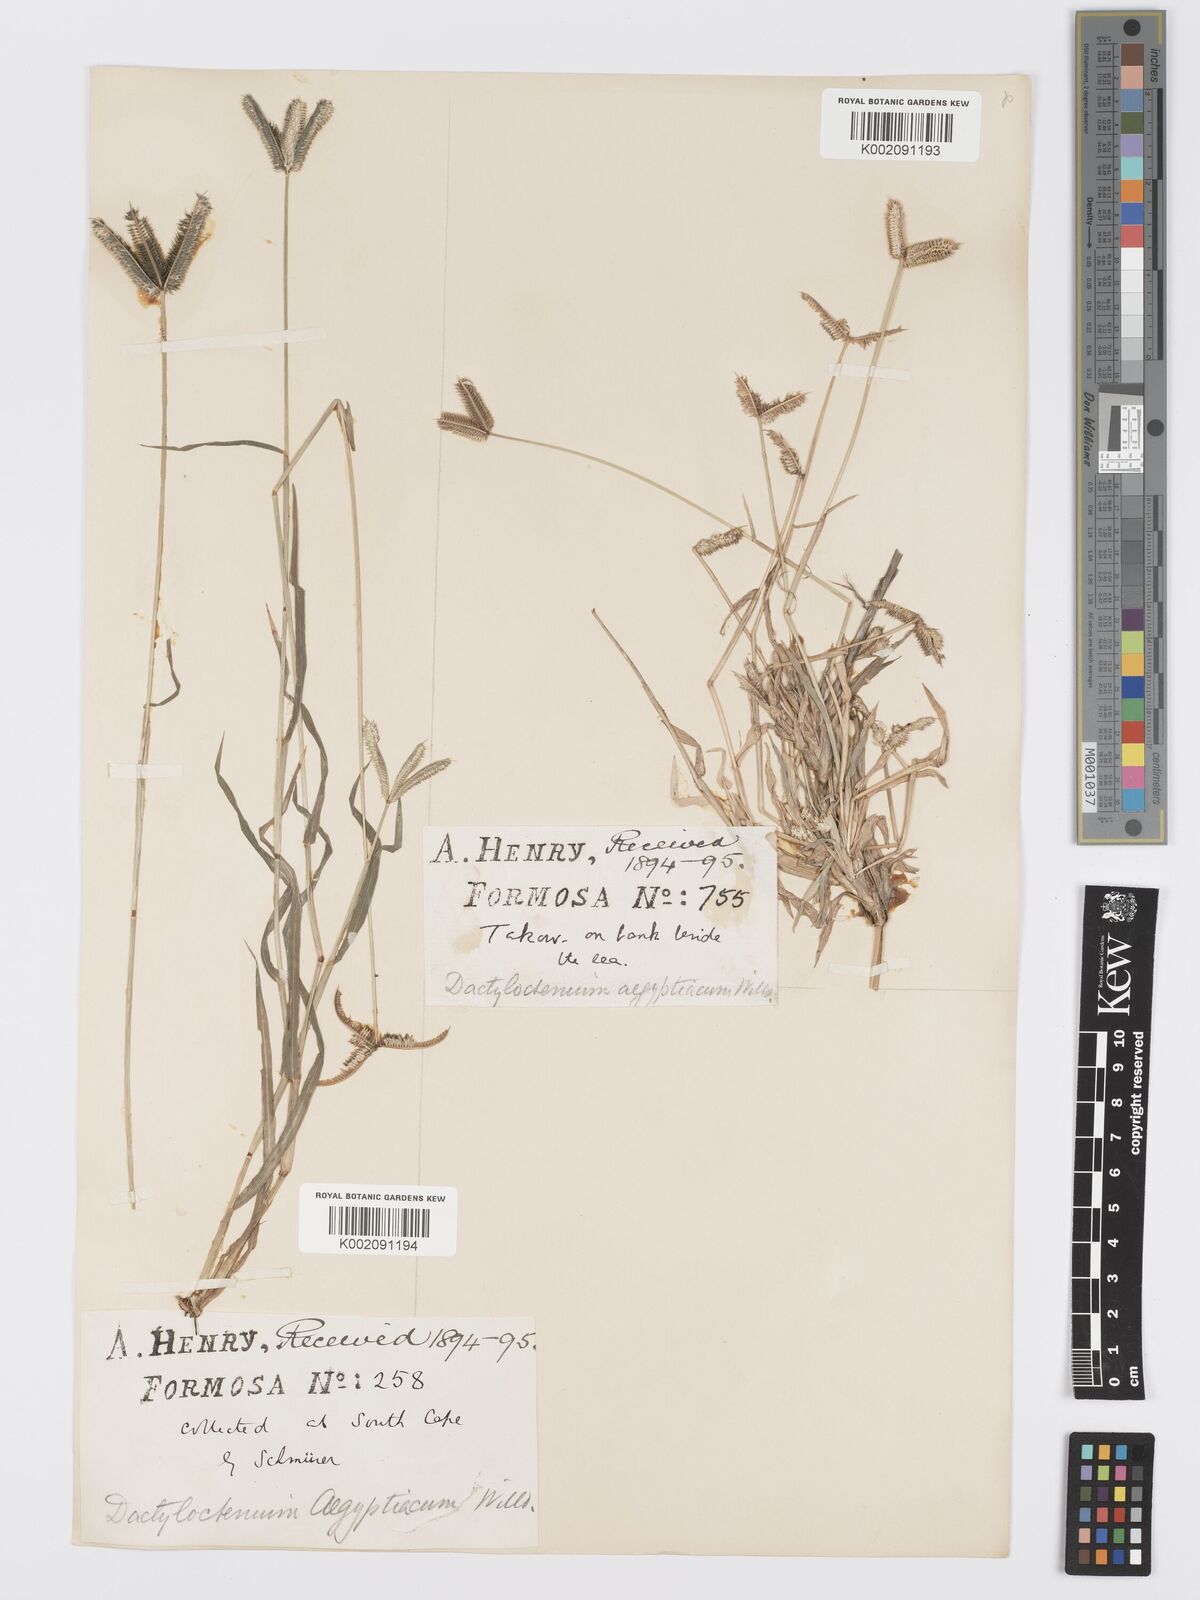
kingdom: Plantae
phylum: Tracheophyta
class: Liliopsida
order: Poales
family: Poaceae
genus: Dactyloctenium
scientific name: Dactyloctenium aegyptium
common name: Egyptian grass
